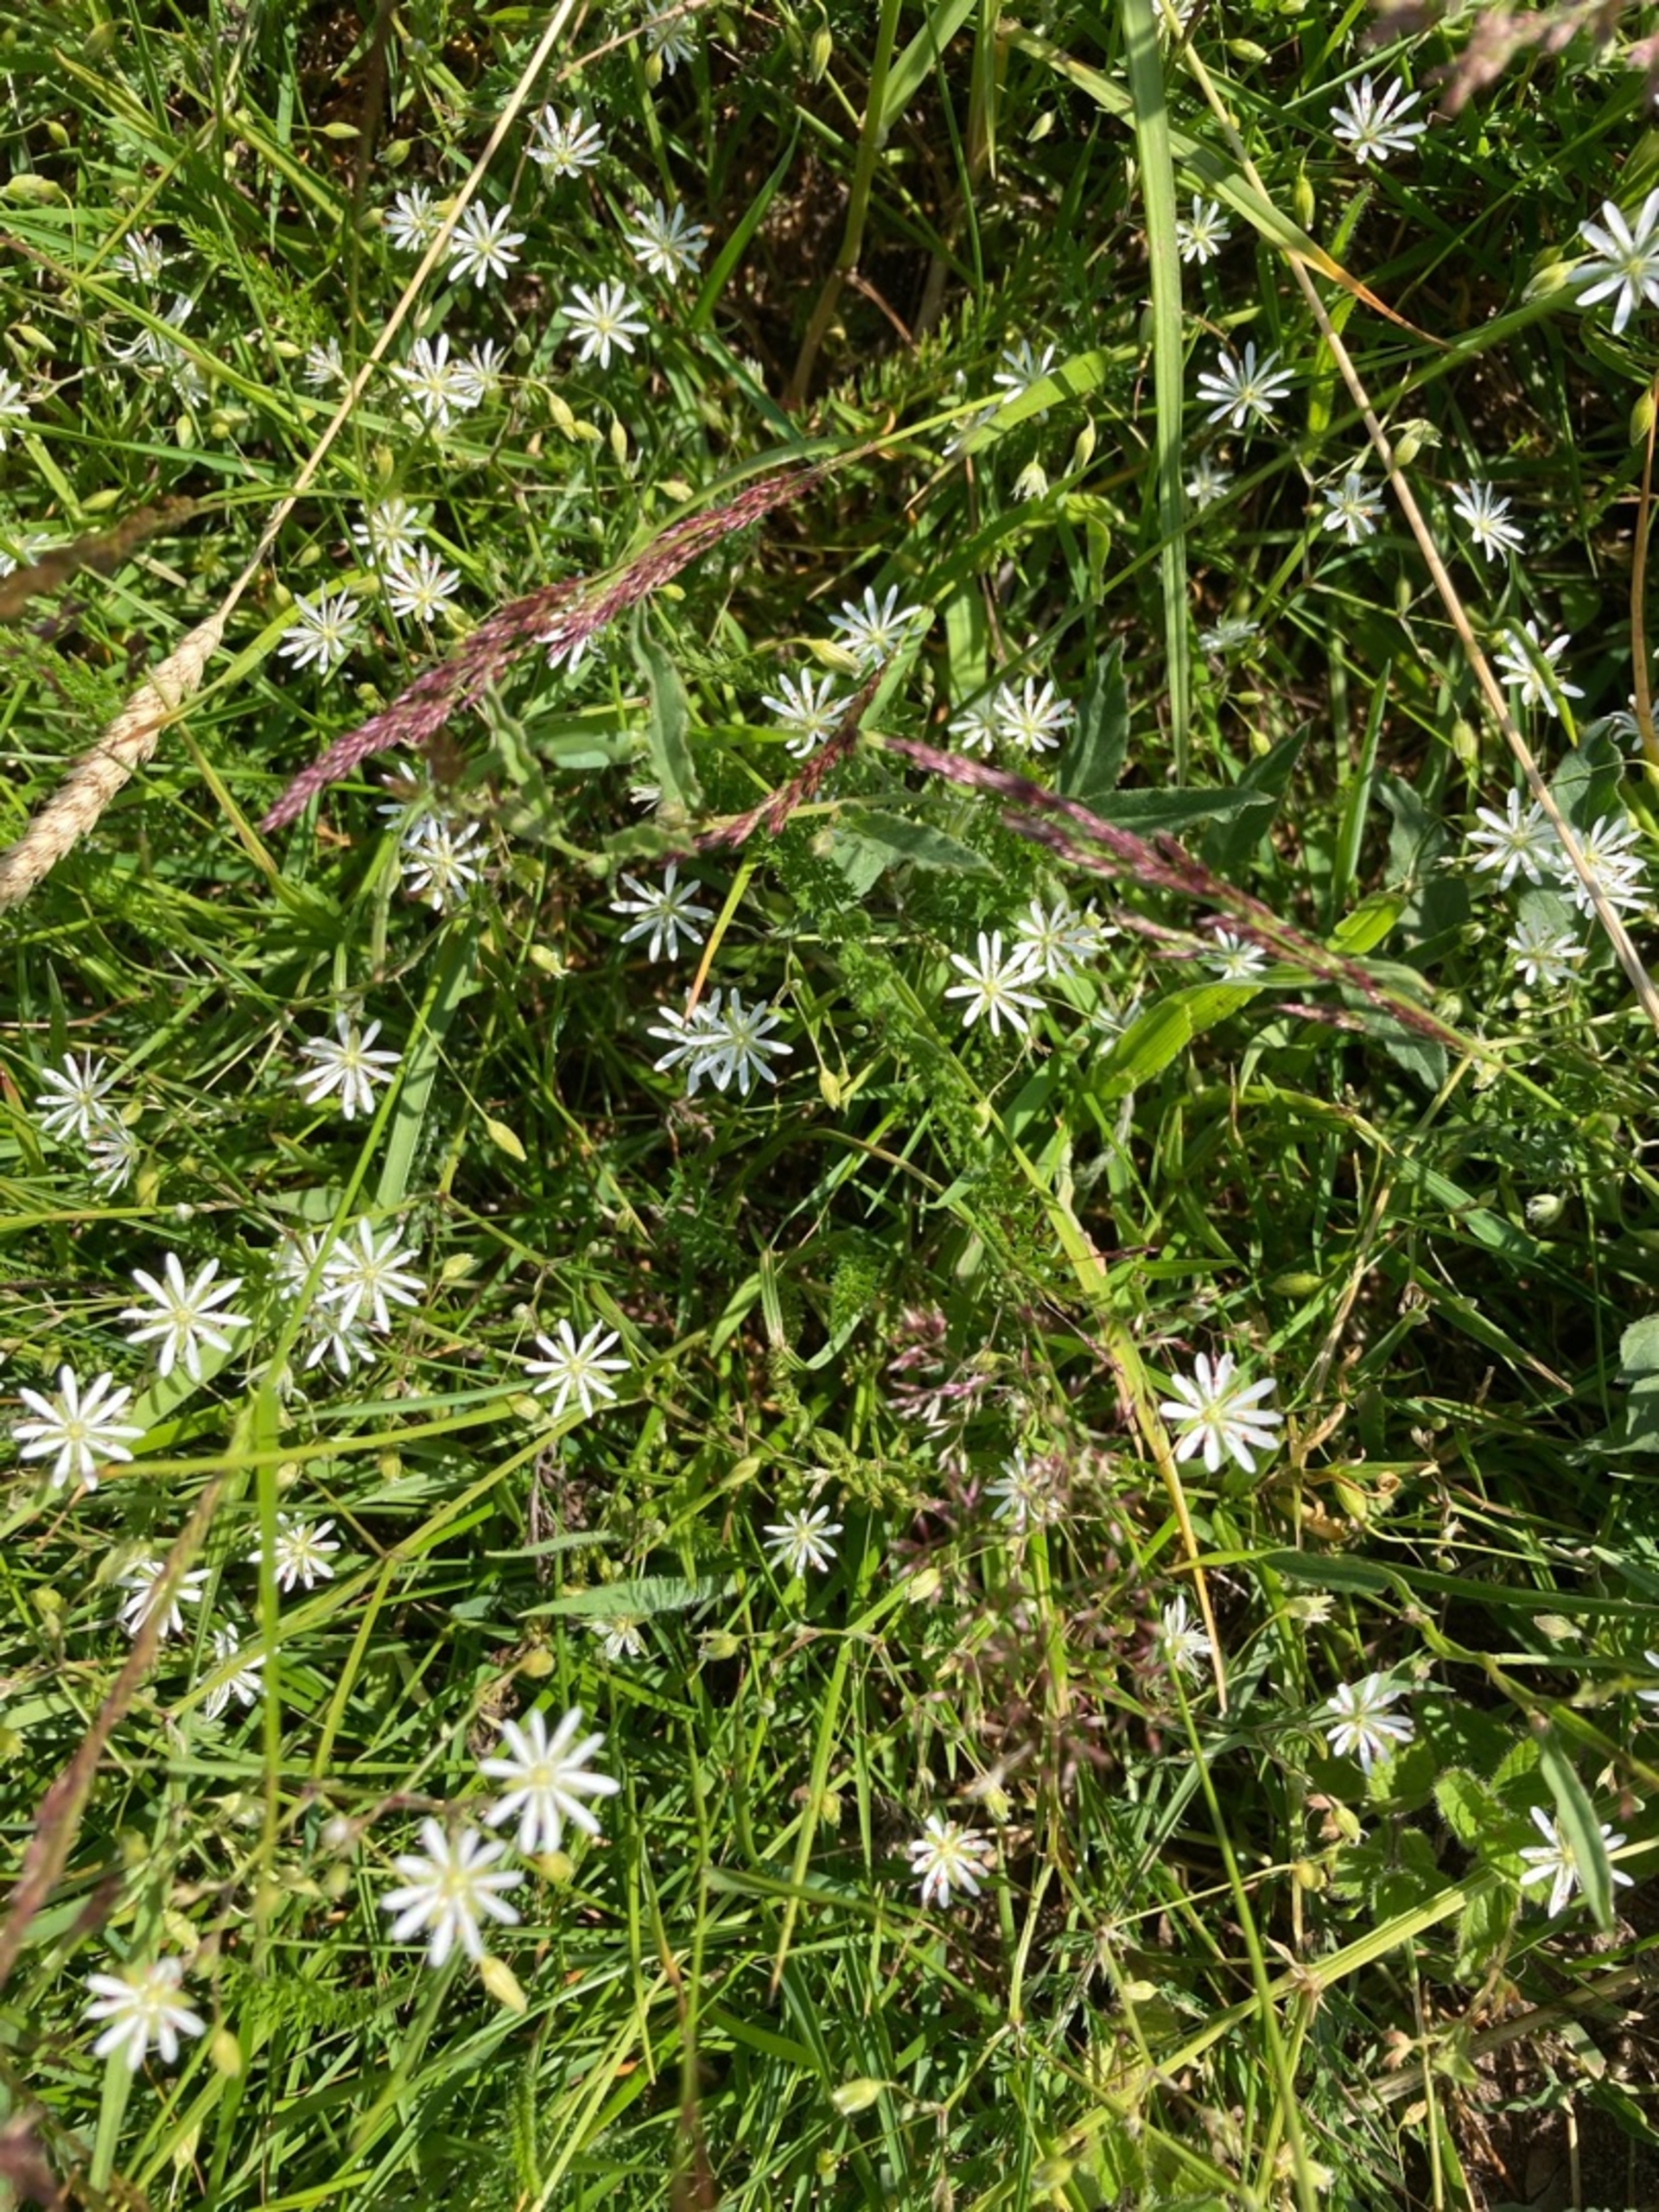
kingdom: Plantae
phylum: Tracheophyta
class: Magnoliopsida
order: Caryophyllales
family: Caryophyllaceae
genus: Stellaria
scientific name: Stellaria graminea
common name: Græsbladet fladstjerne
